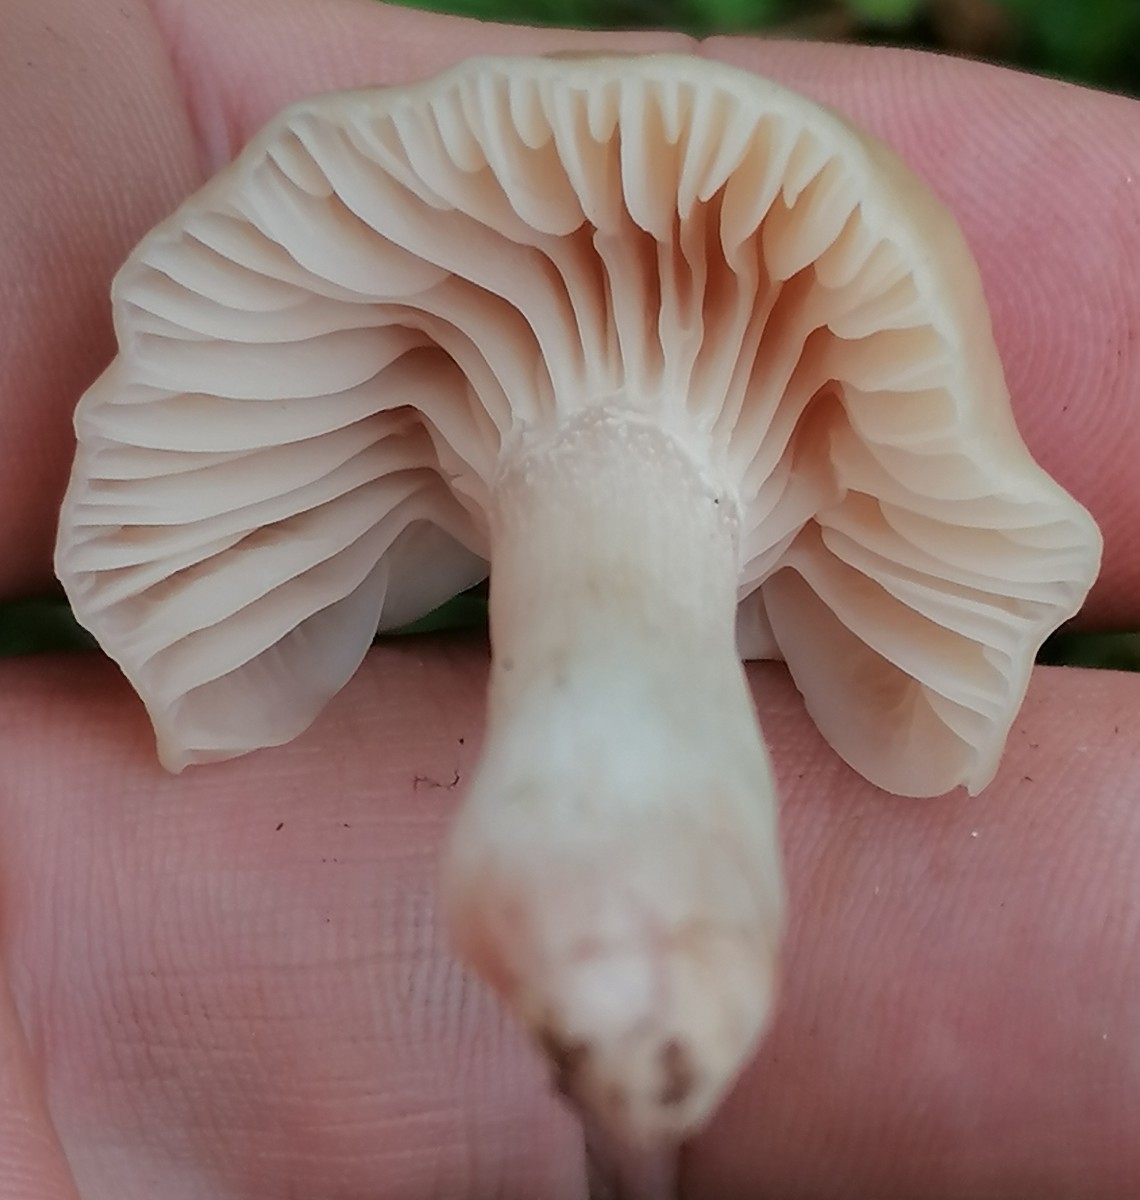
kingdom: Fungi
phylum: Basidiomycota
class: Agaricomycetes
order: Agaricales
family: Hygrophoraceae
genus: Cuphophyllus
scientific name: Cuphophyllus virgineus
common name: isabella-vokshat
